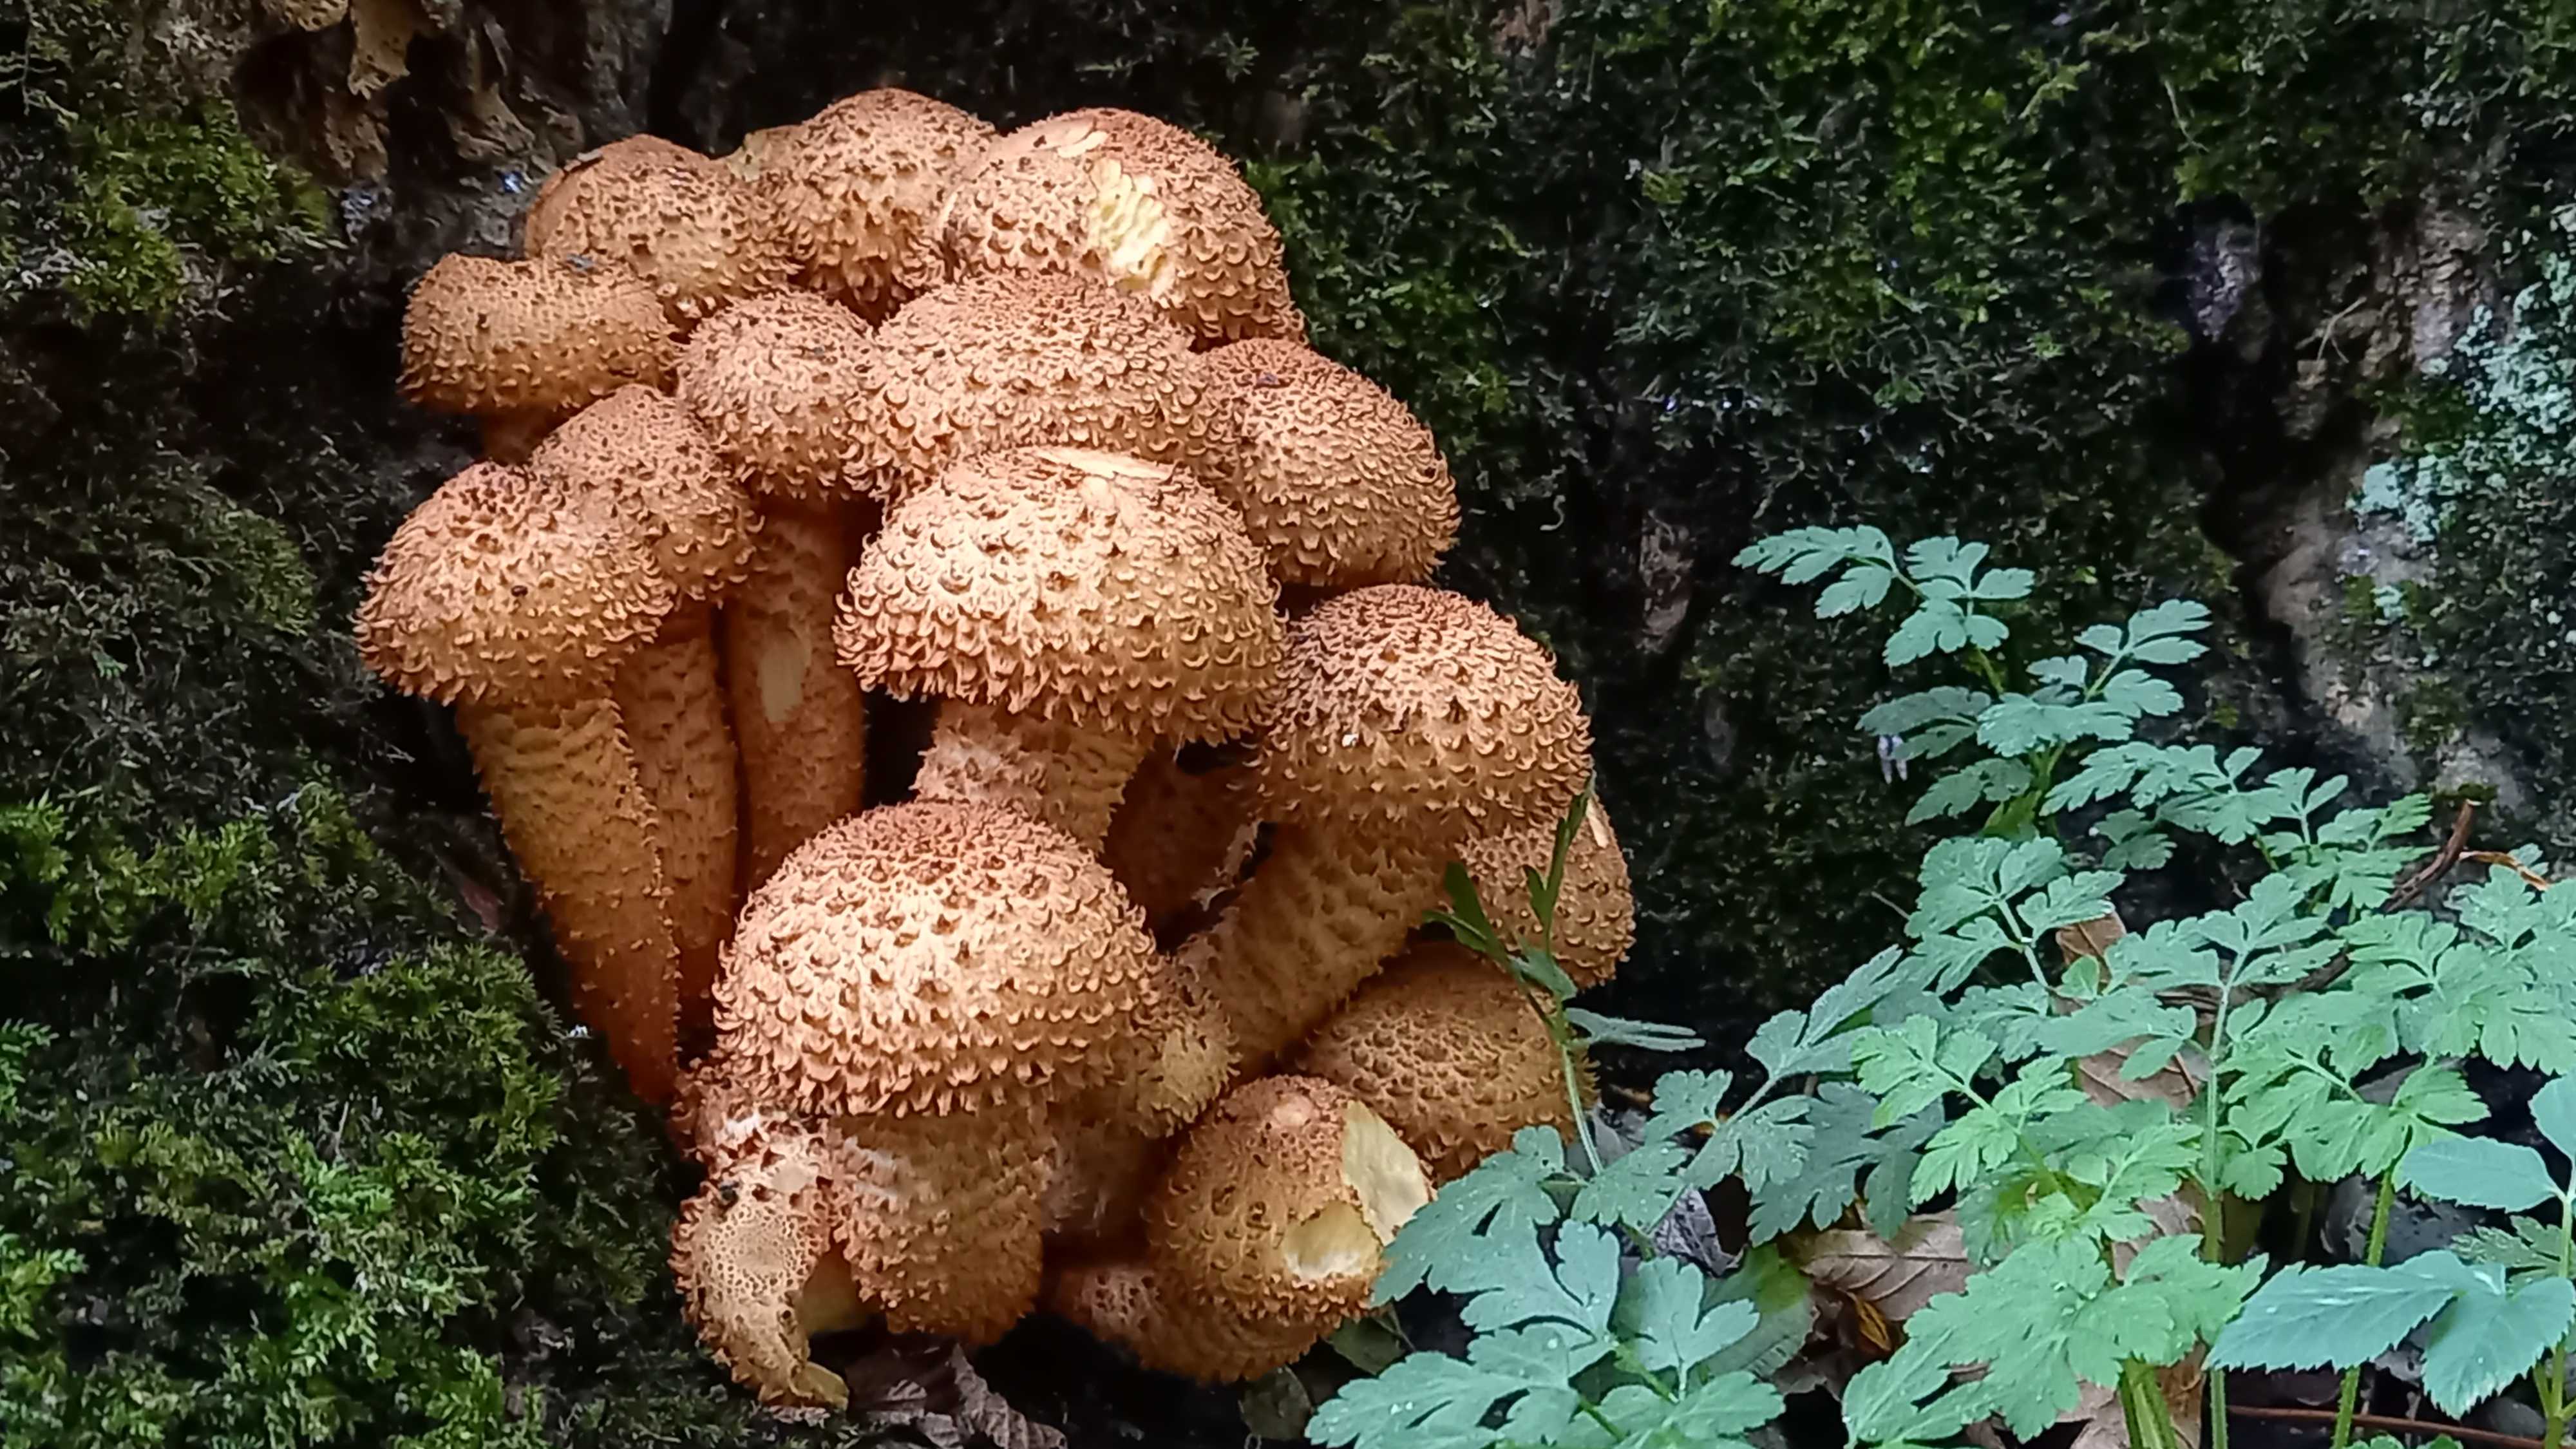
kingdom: Fungi
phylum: Basidiomycota
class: Agaricomycetes
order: Agaricales
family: Strophariaceae
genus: Pholiota
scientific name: Pholiota squarrosa
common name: krumskællet skælhat
